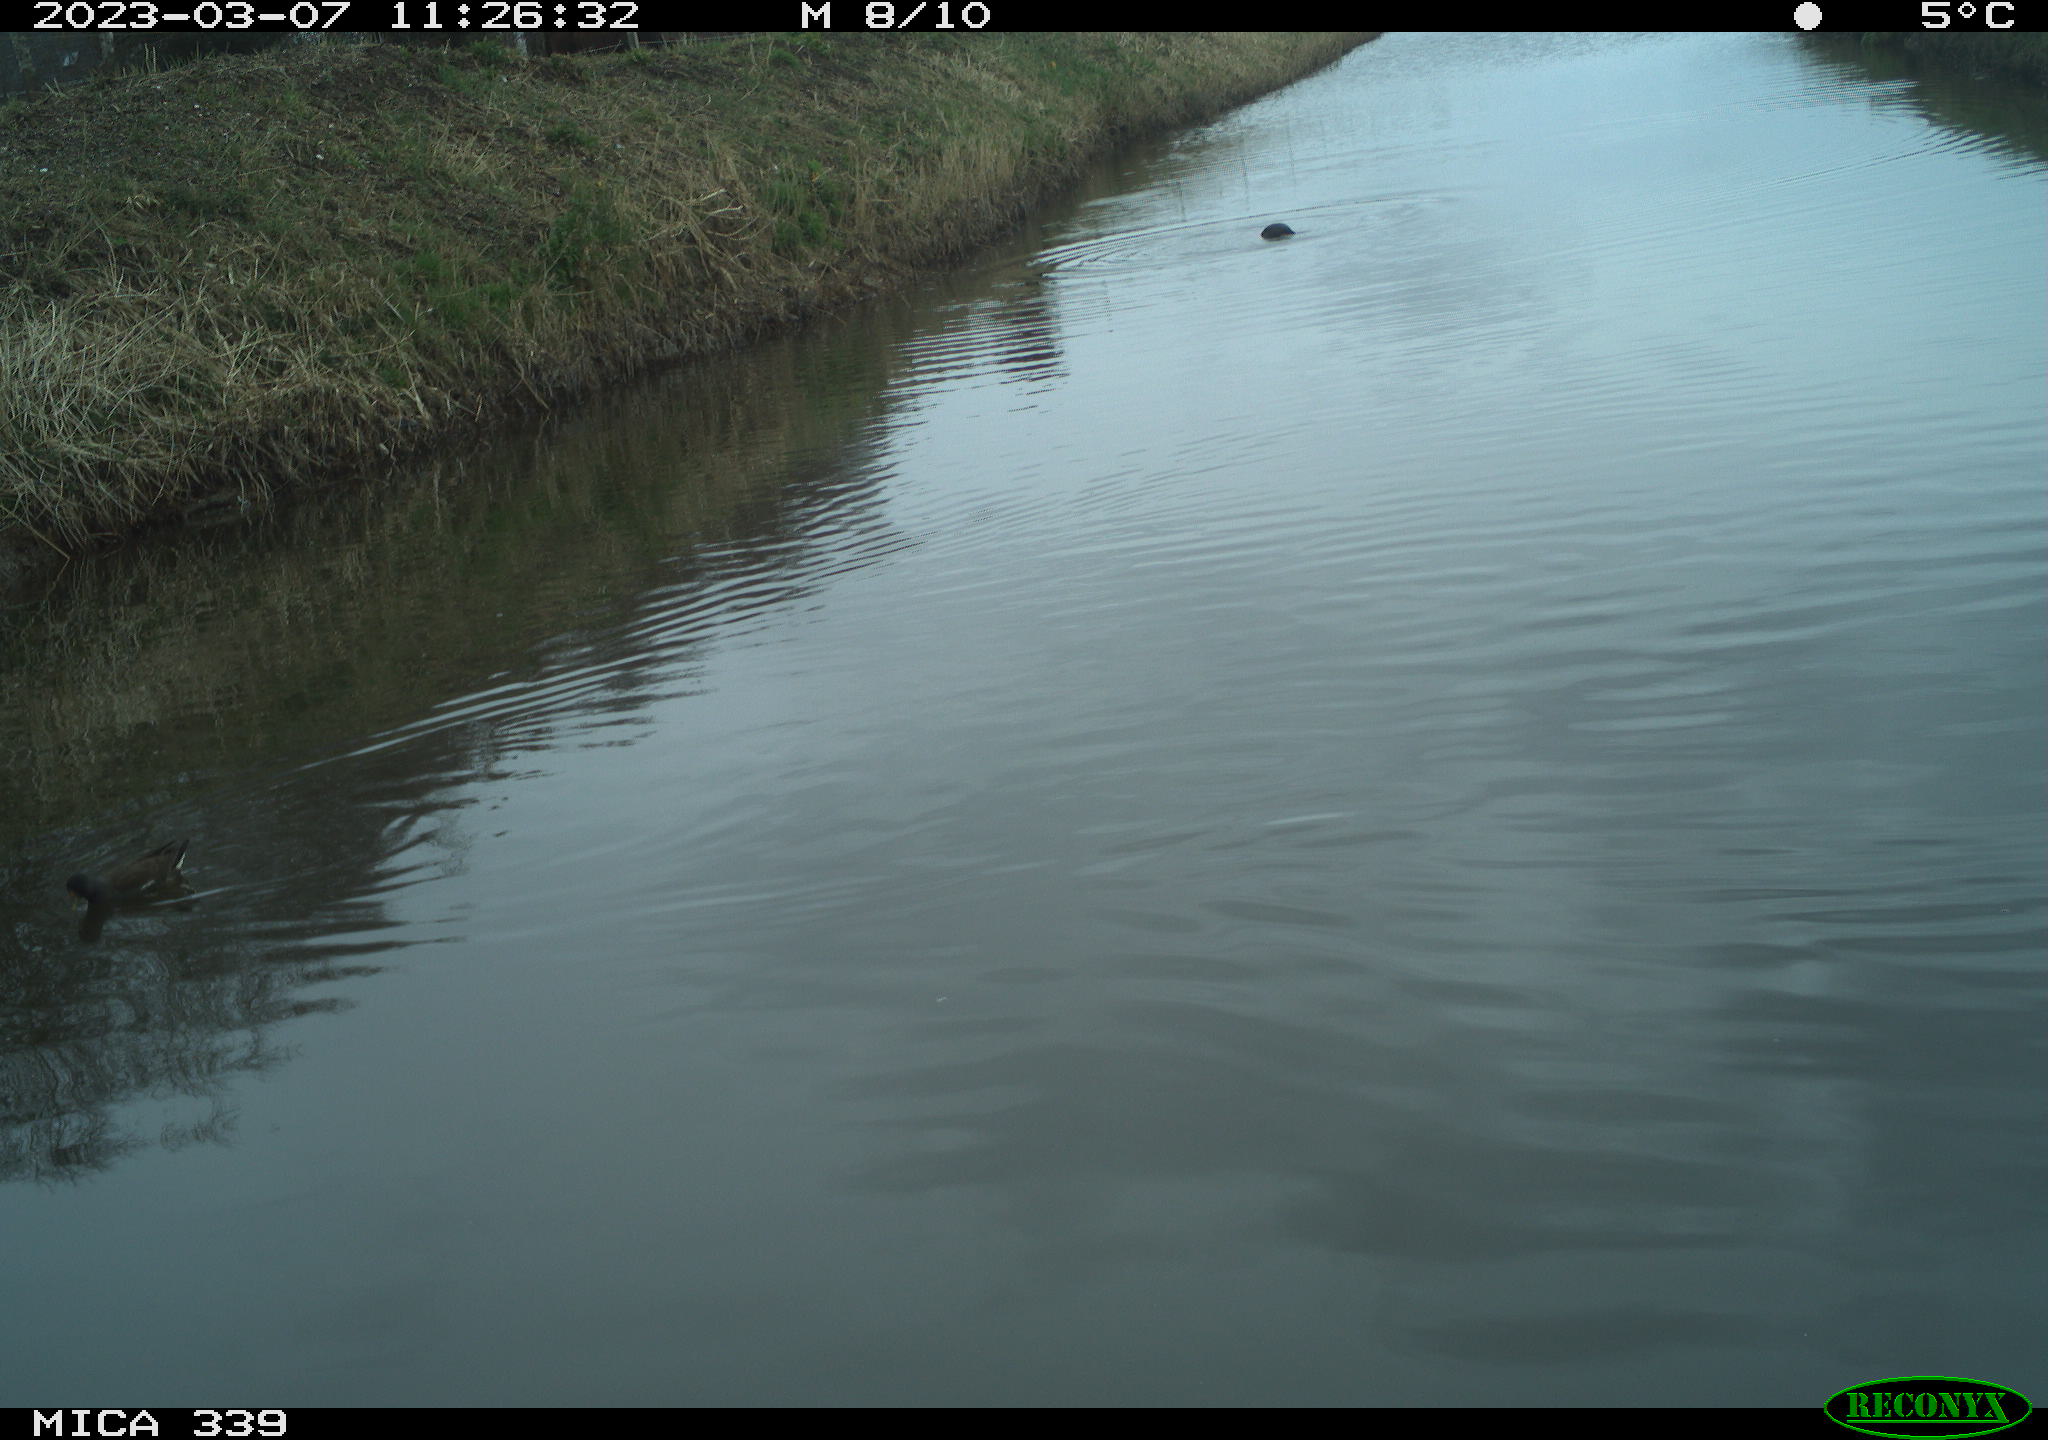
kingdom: Animalia
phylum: Chordata
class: Aves
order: Gruiformes
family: Rallidae
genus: Gallinula
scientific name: Gallinula chloropus
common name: Common moorhen
